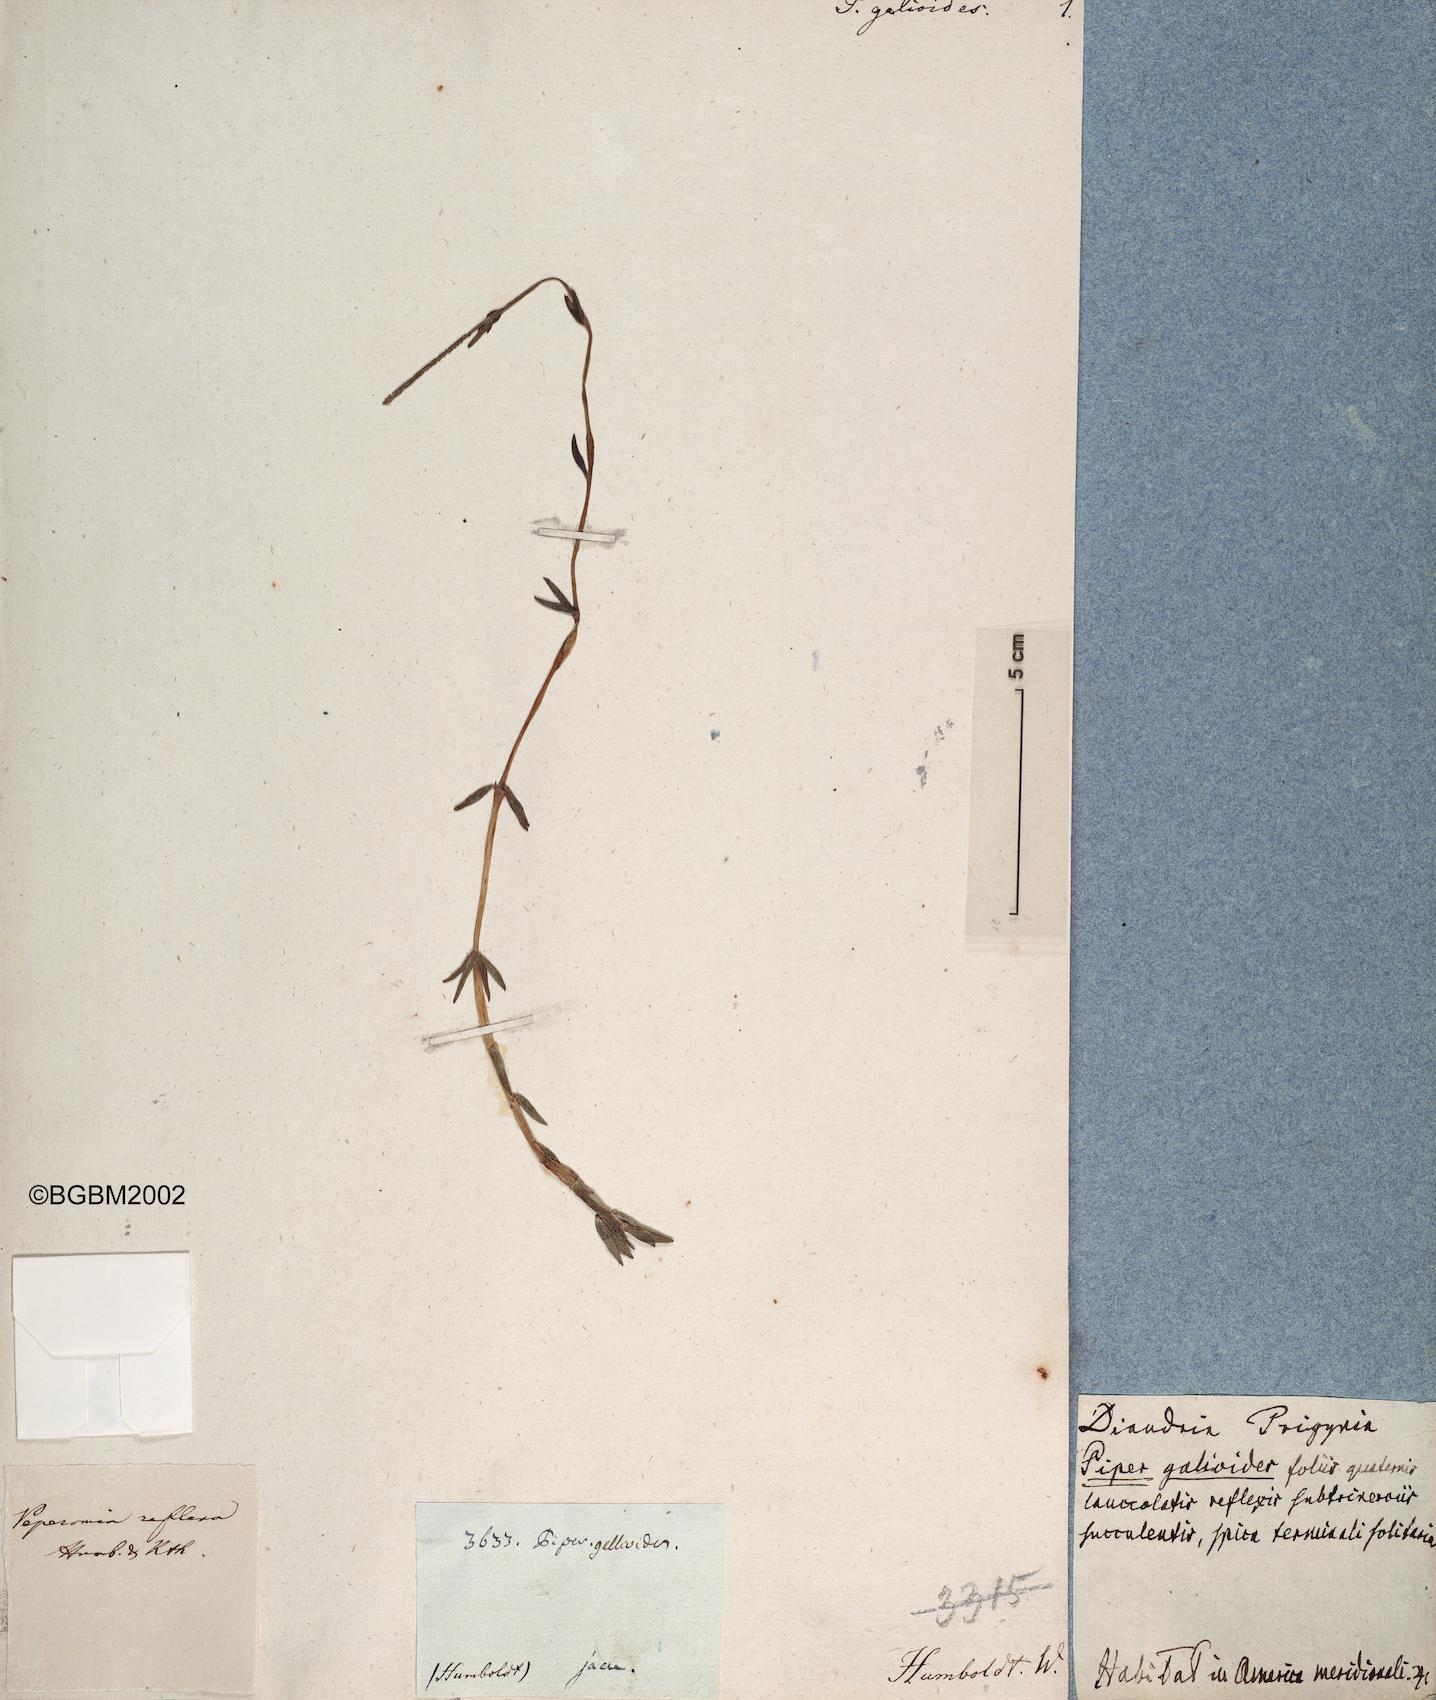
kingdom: Plantae
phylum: Tracheophyta
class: Magnoliopsida
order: Piperales
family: Piperaceae
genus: Peperomia
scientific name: Peperomia galioides
